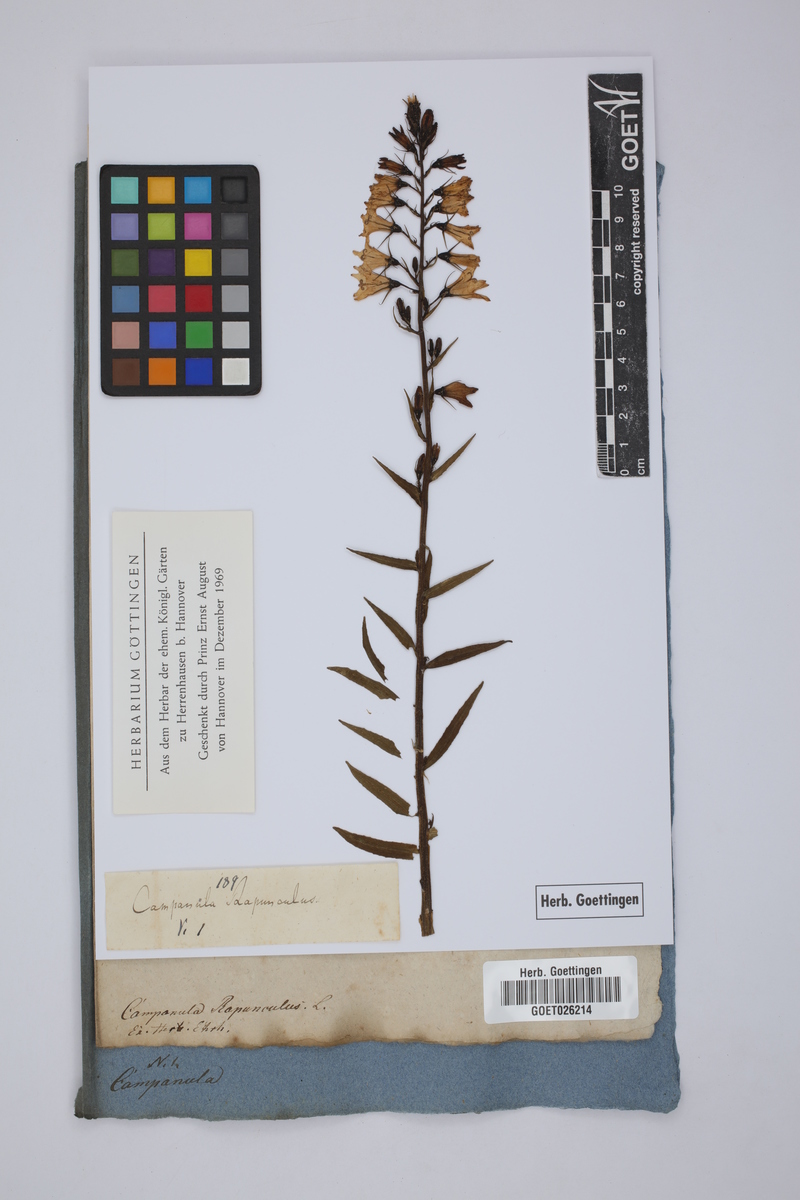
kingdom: Plantae
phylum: Tracheophyta
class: Magnoliopsida
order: Asterales
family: Campanulaceae
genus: Campanula
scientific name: Campanula rapunculus
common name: Rampion bellflower
